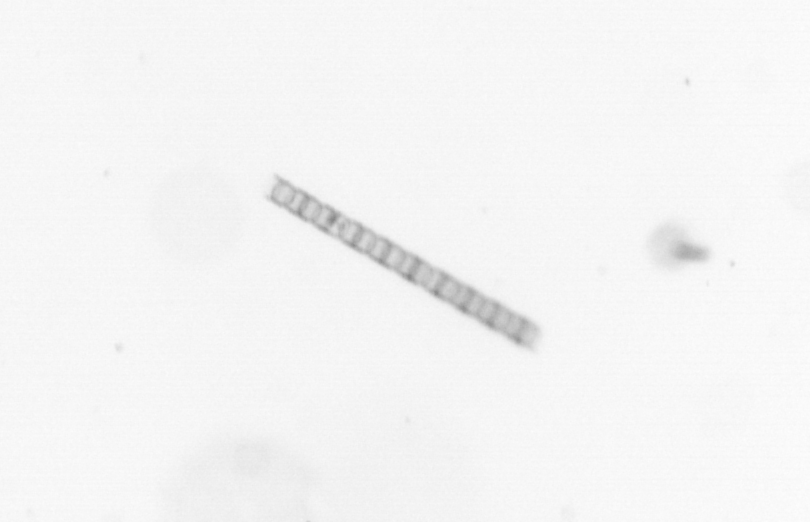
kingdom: Chromista
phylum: Ochrophyta
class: Bacillariophyceae
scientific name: Bacillariophyceae
